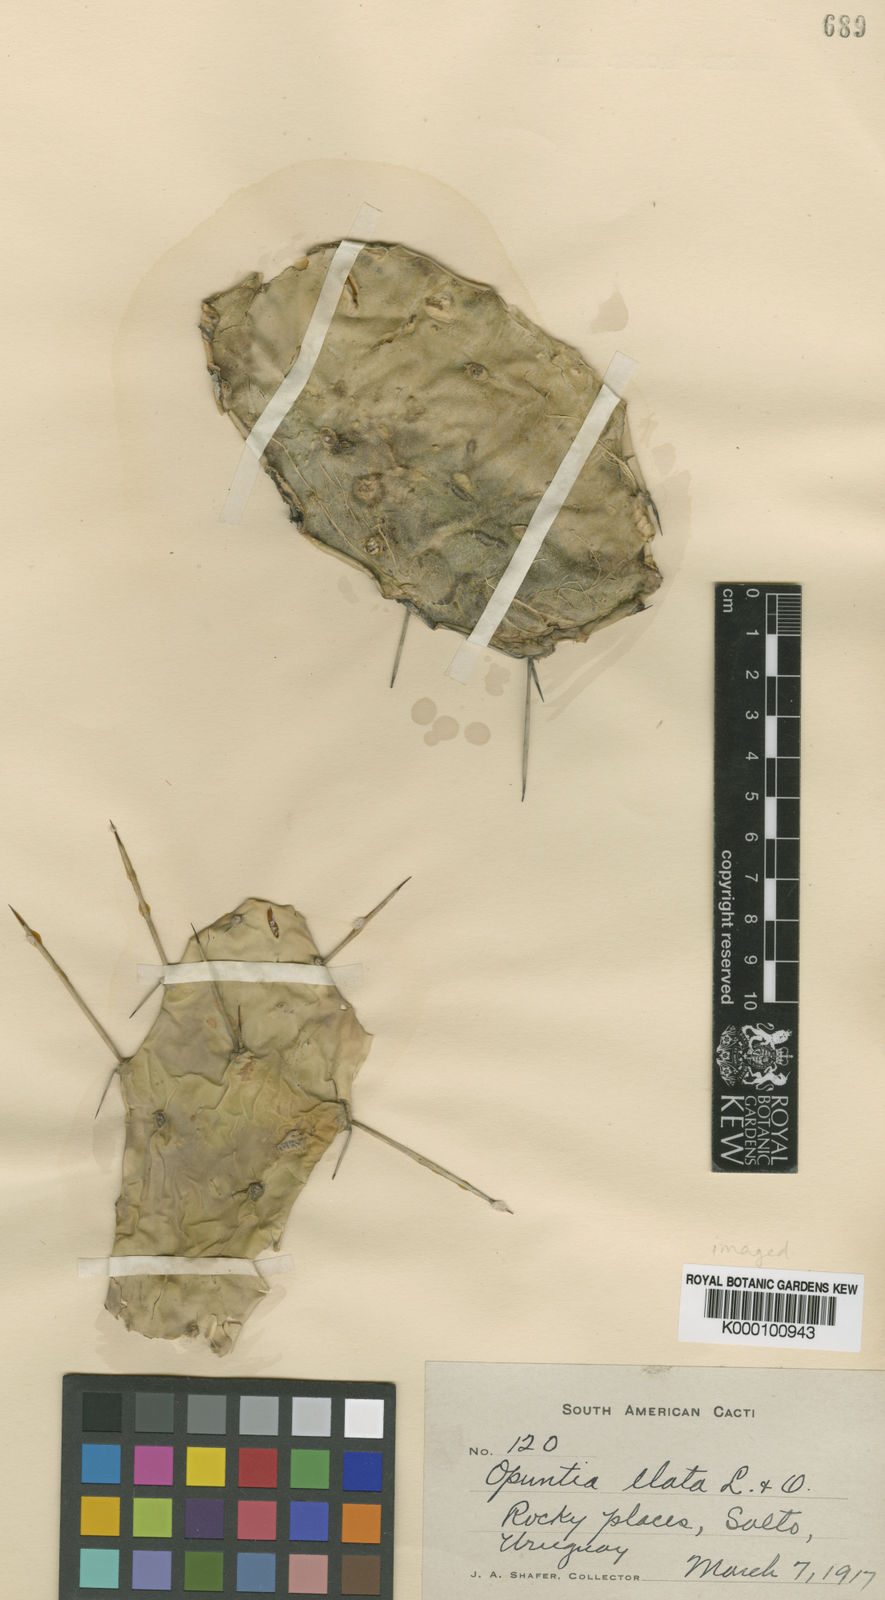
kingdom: Plantae
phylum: Tracheophyta
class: Magnoliopsida
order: Caryophyllales
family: Cactaceae
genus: Opuntia
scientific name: Opuntia elata
